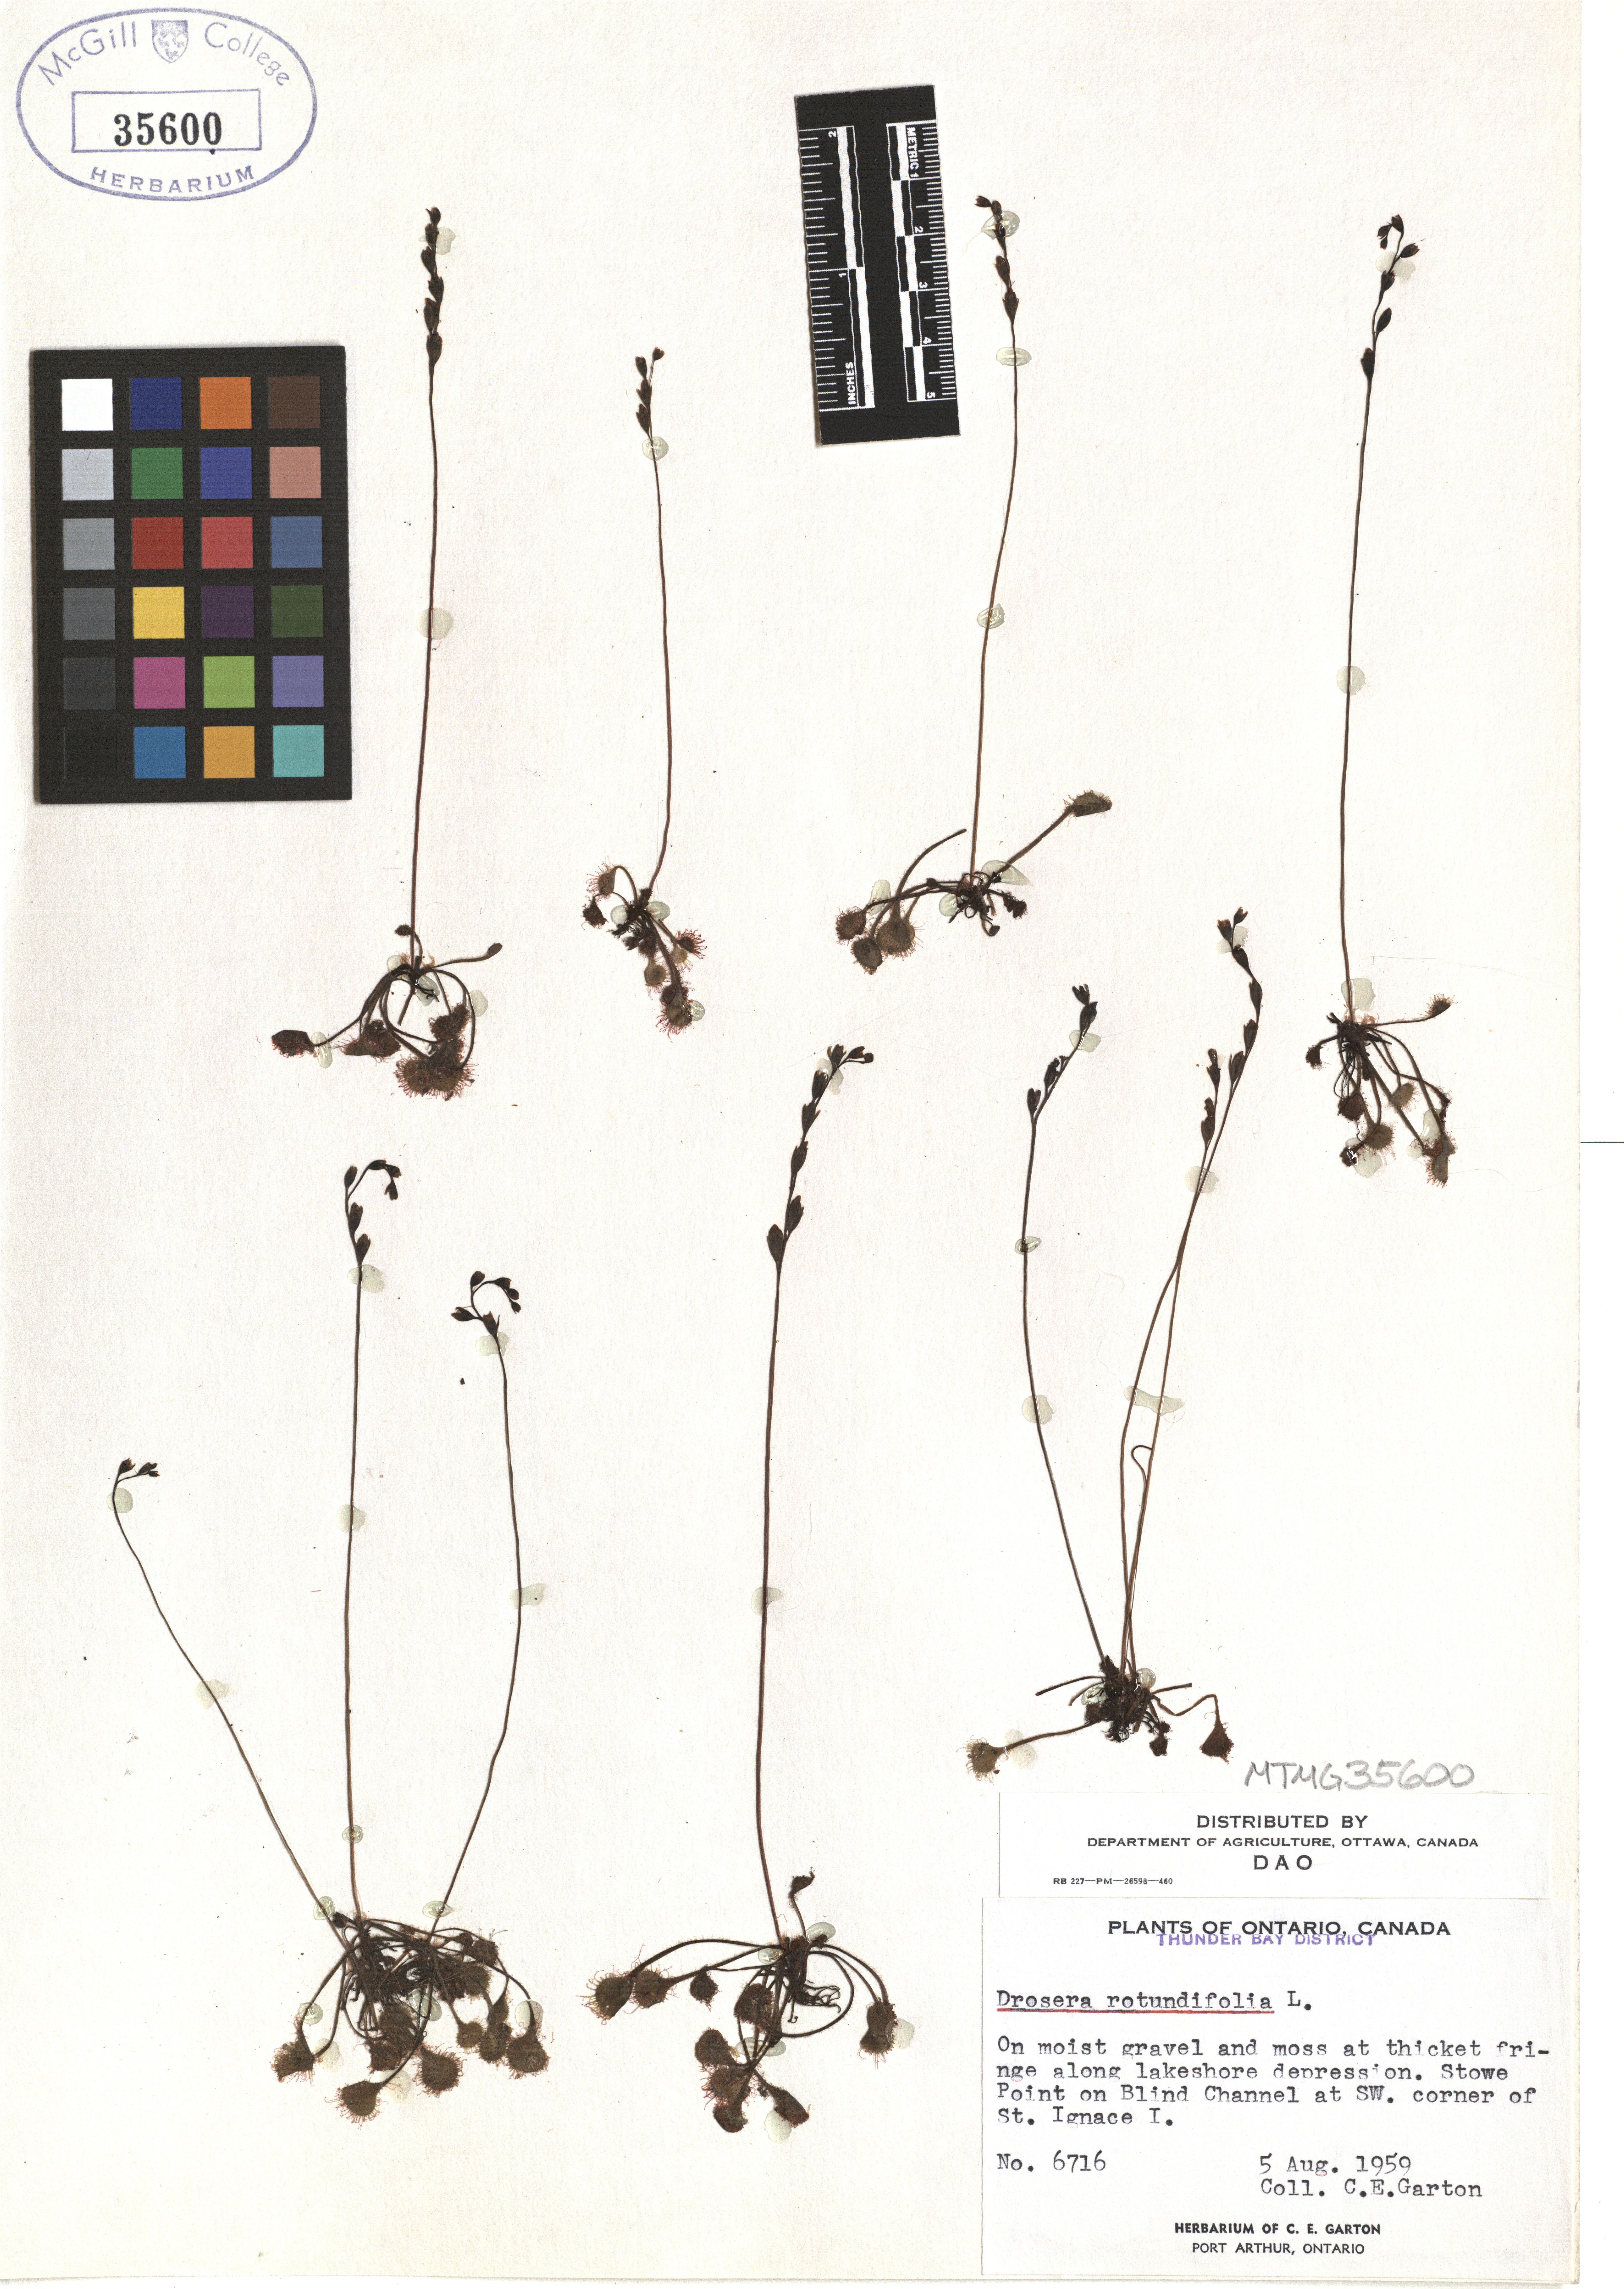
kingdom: Plantae
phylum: Tracheophyta
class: Magnoliopsida
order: Caryophyllales
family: Droseraceae
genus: Drosera
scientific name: Drosera rotundifolia
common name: Round-leaved sundew
